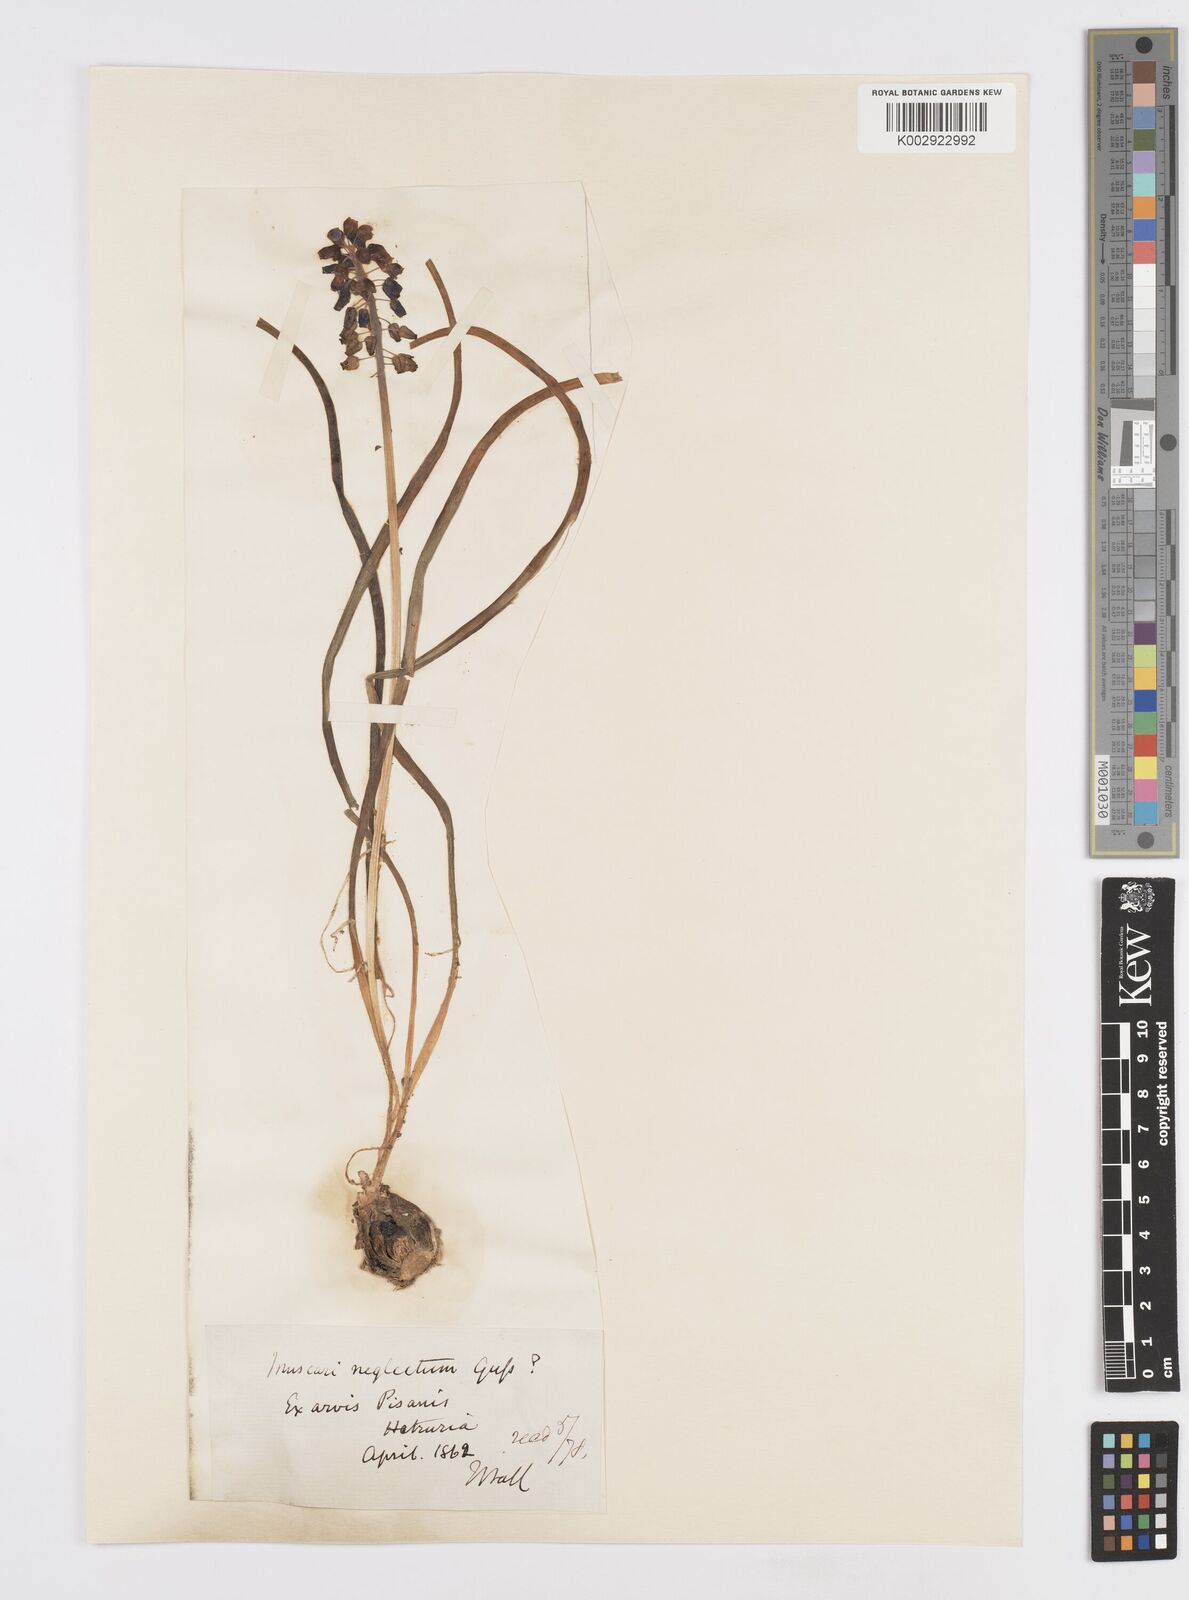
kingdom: Plantae
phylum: Tracheophyta
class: Liliopsida
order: Asparagales
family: Asparagaceae
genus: Muscari
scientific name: Muscari neglectum
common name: Grape-hyacinth
